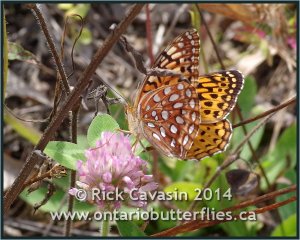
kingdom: Animalia
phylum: Arthropoda
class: Insecta
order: Lepidoptera
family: Nymphalidae
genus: Speyeria
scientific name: Speyeria aphrodite
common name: Aphrodite Fritillary
